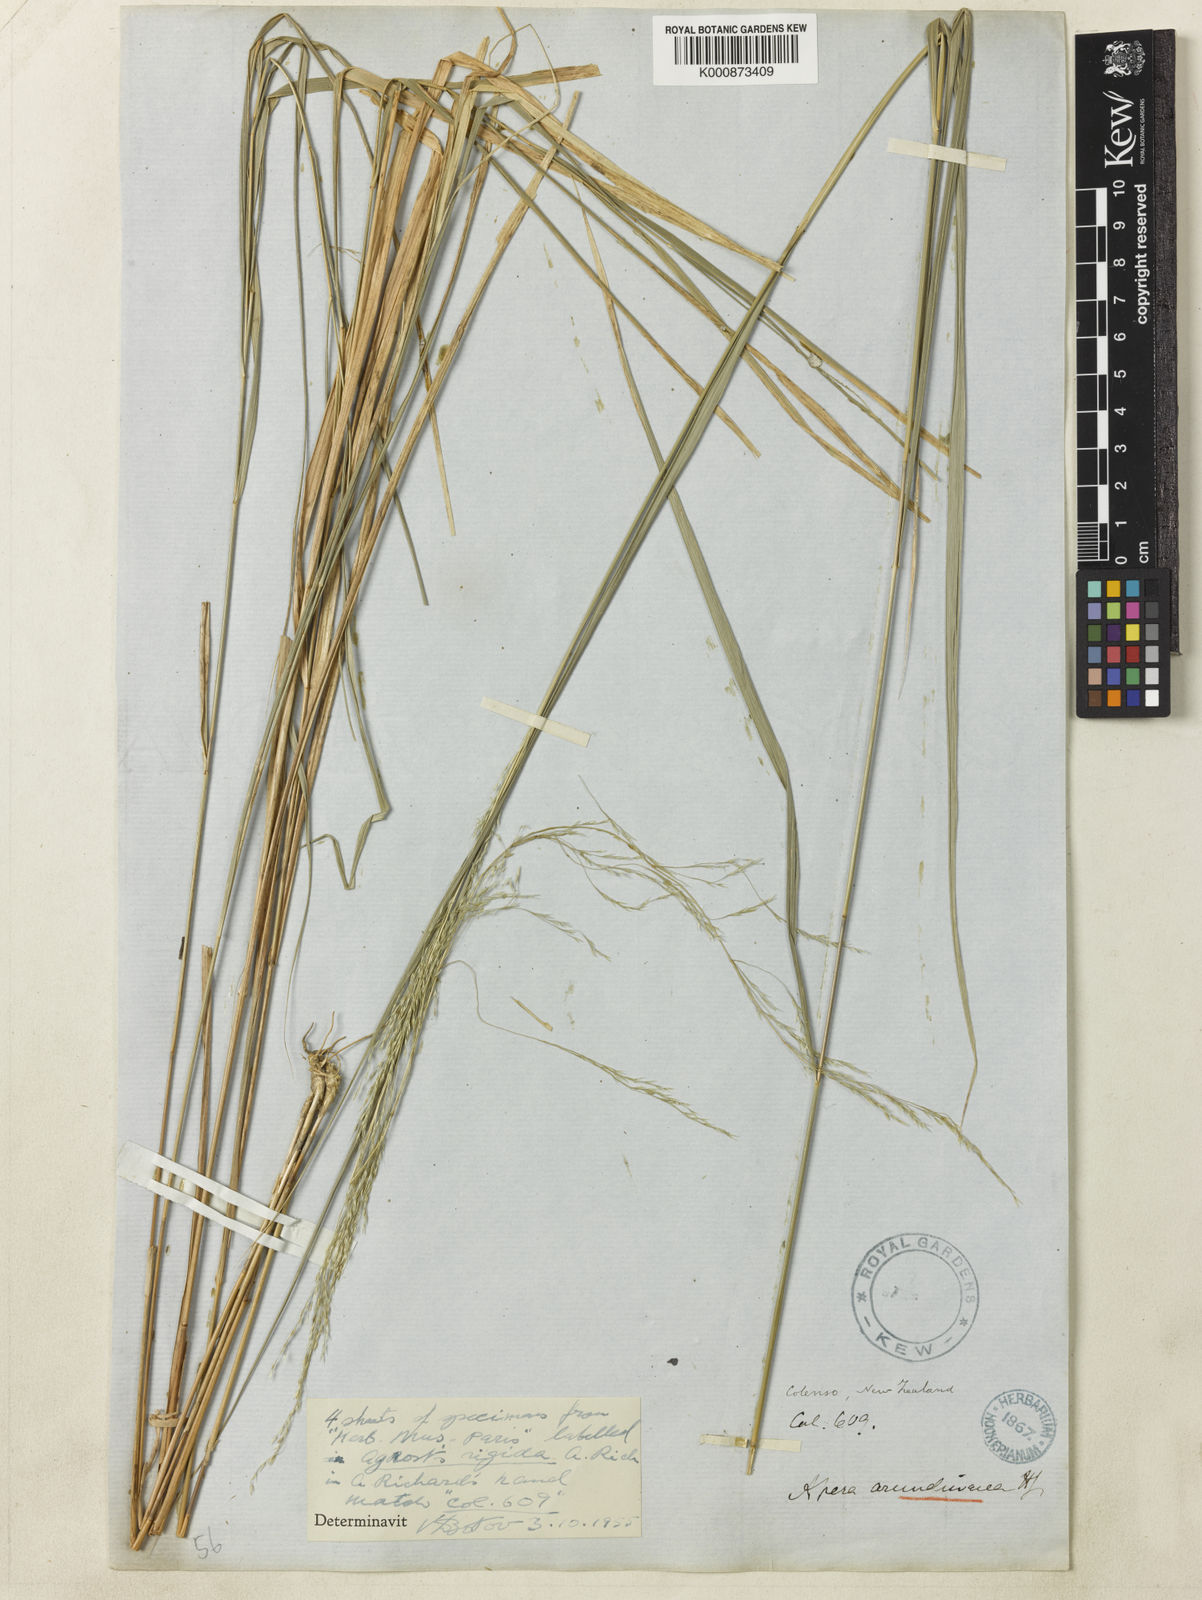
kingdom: Plantae
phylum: Tracheophyta
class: Liliopsida
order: Poales
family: Poaceae
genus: Stipa
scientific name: Stipa
